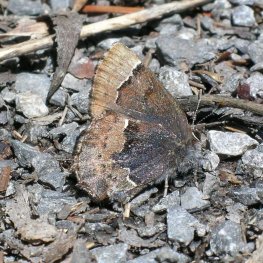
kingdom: Animalia
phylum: Arthropoda
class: Insecta
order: Lepidoptera
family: Lycaenidae
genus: Incisalia
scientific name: Incisalia henrici
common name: Henry's Elfin
